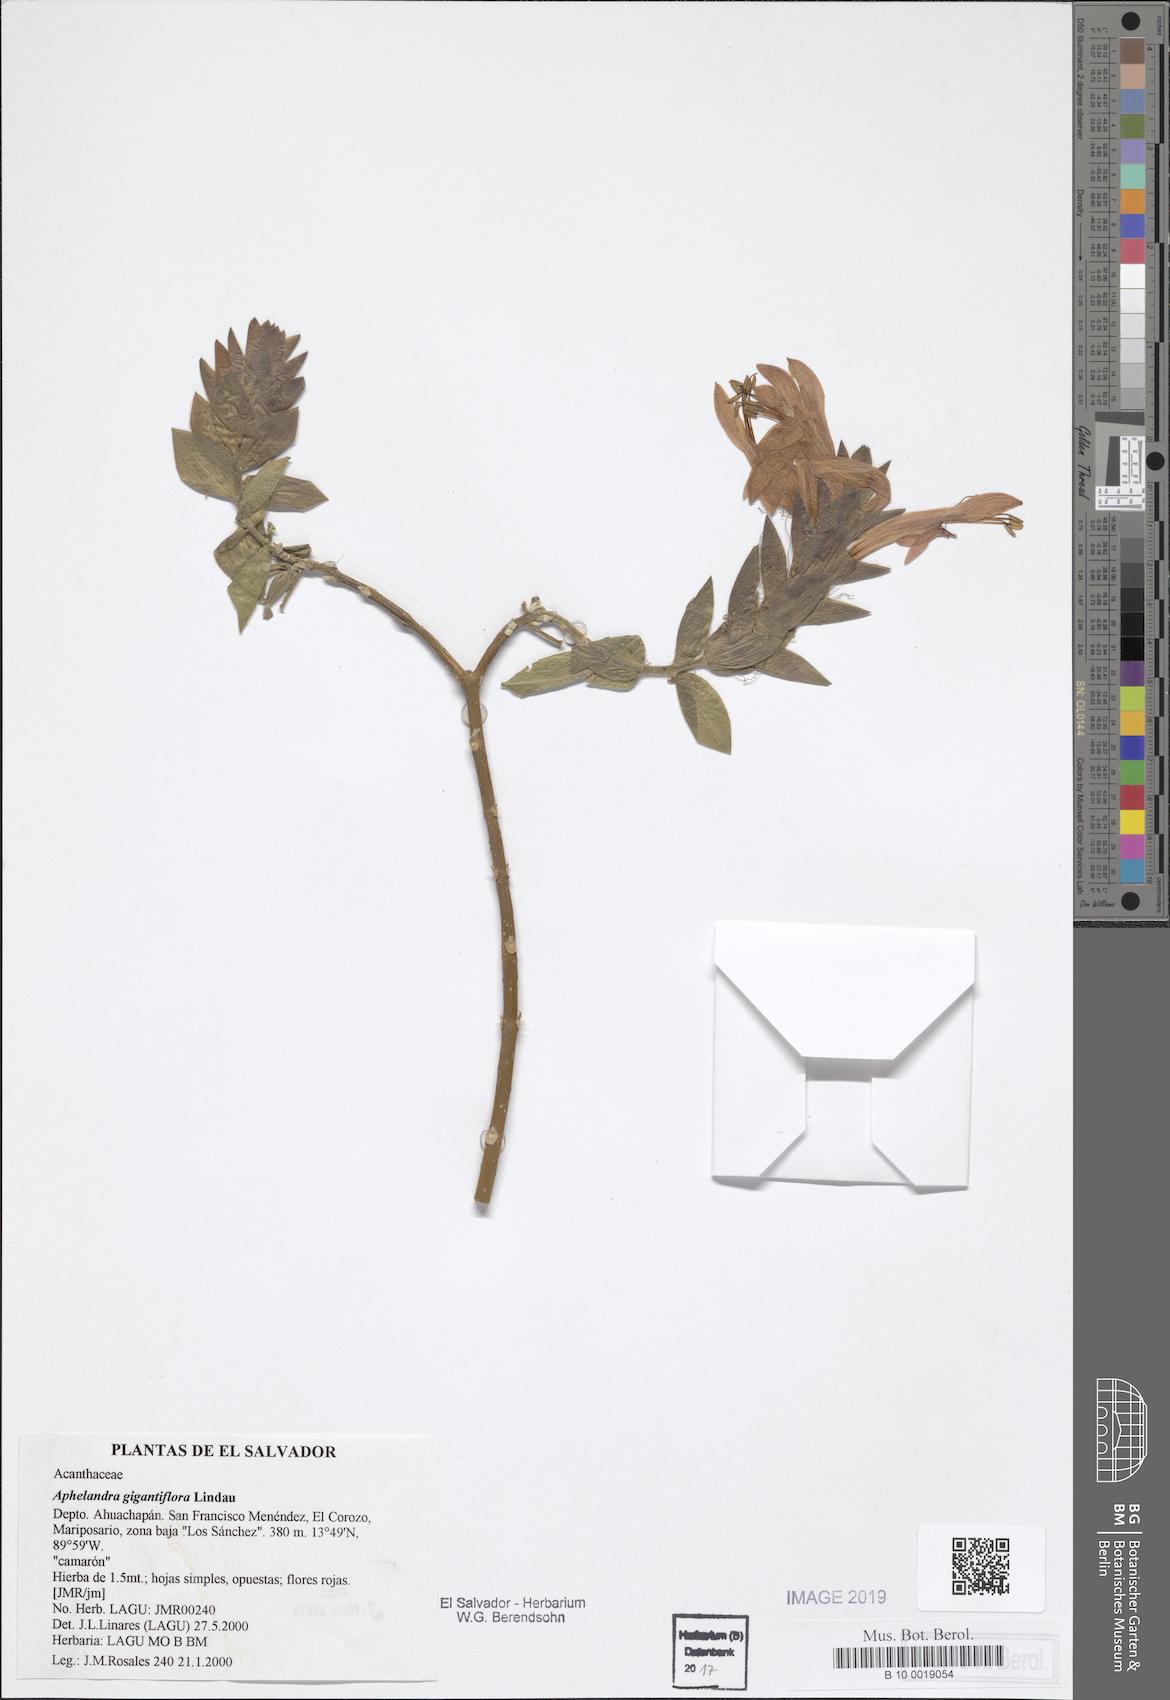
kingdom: Plantae
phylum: Tracheophyta
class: Magnoliopsida
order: Lamiales
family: Acanthaceae
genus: Aphelandra
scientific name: Aphelandra gigantiflora
